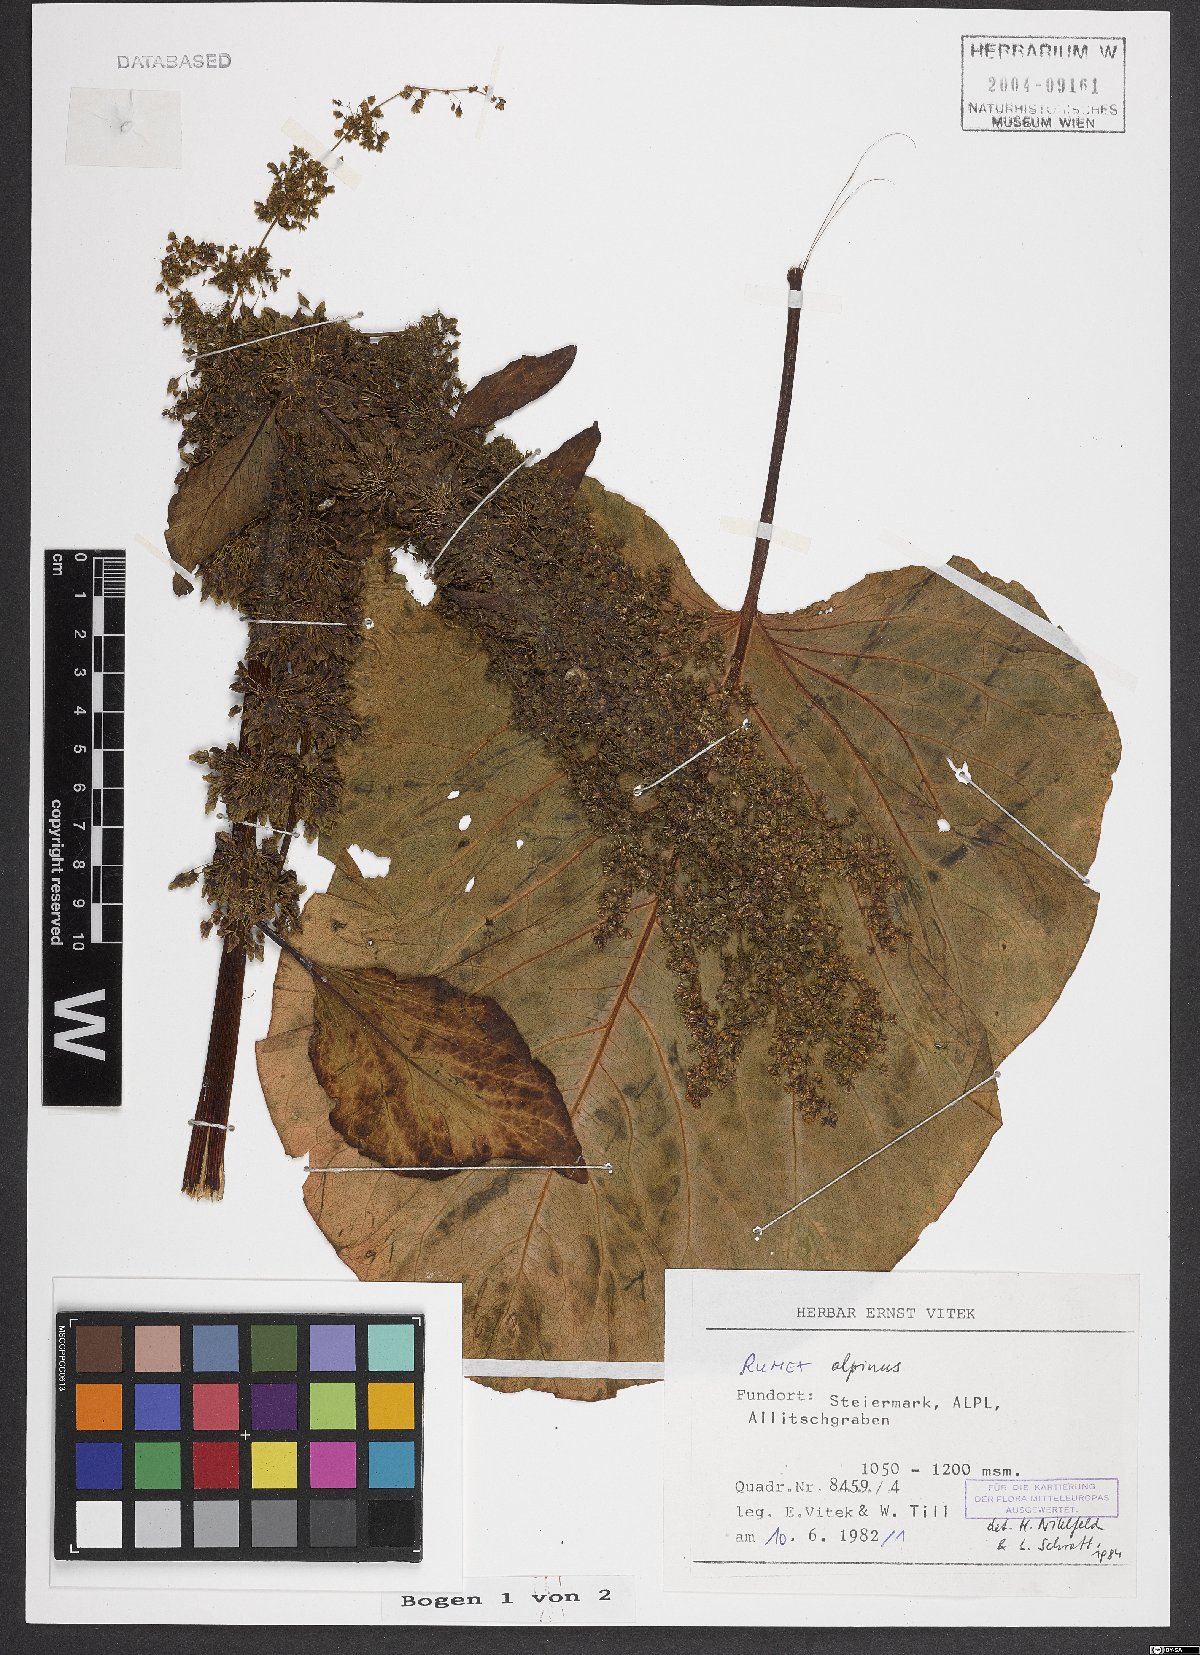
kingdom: Plantae
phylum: Tracheophyta
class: Magnoliopsida
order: Caryophyllales
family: Polygonaceae
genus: Rumex
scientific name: Rumex alpinus
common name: Alpine dock
